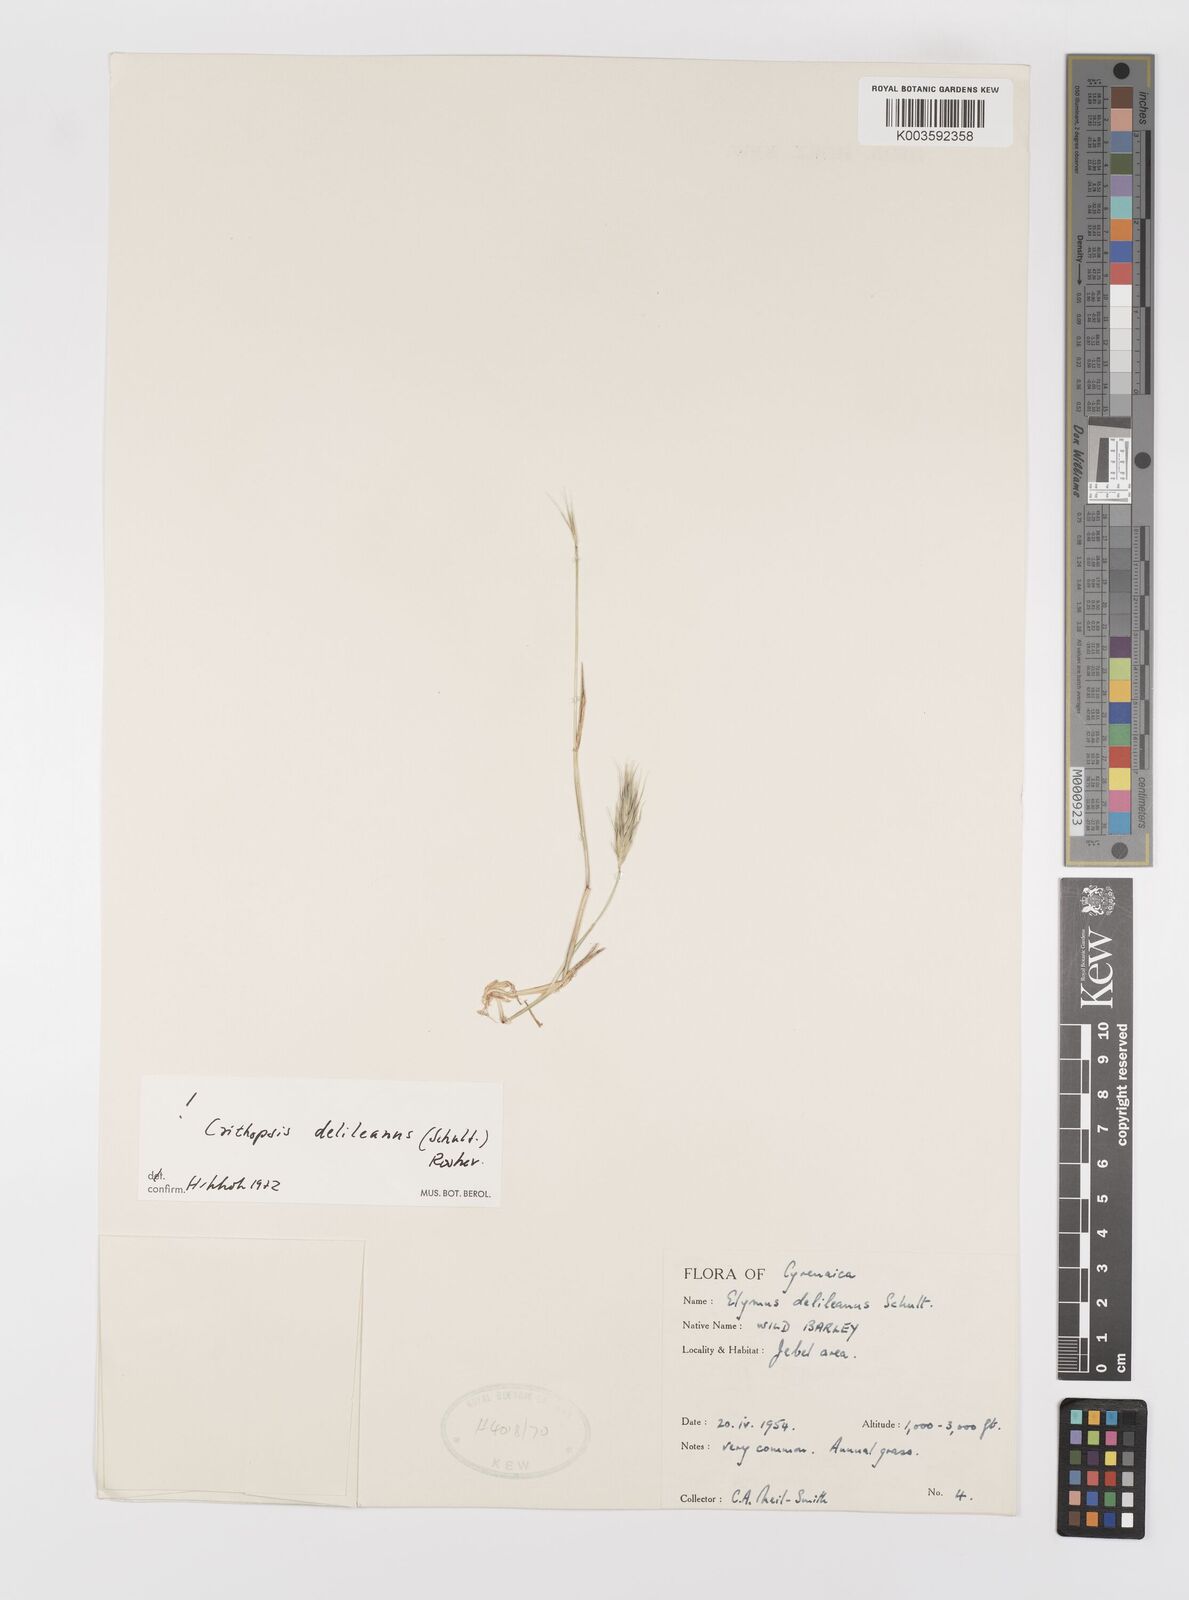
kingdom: Plantae
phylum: Tracheophyta
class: Liliopsida
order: Poales
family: Poaceae
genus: Crithopsis
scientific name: Crithopsis delileana
